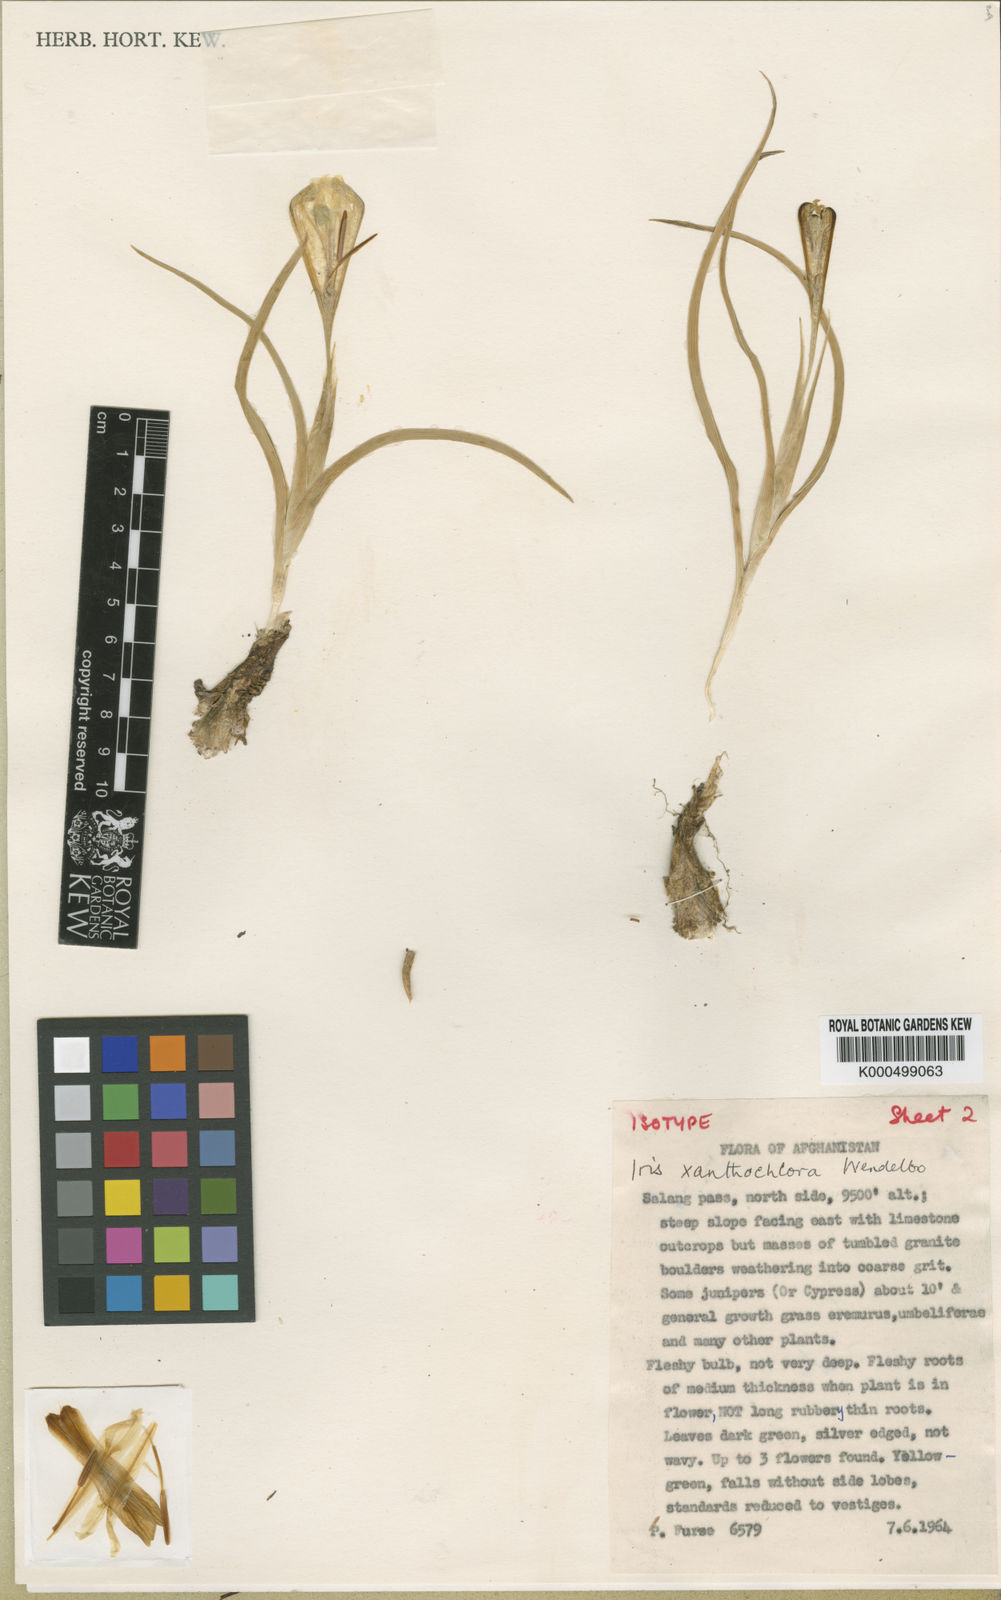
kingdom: Plantae
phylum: Tracheophyta
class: Liliopsida
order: Asparagales
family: Iridaceae
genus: Iris
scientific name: Iris xanthochlora
